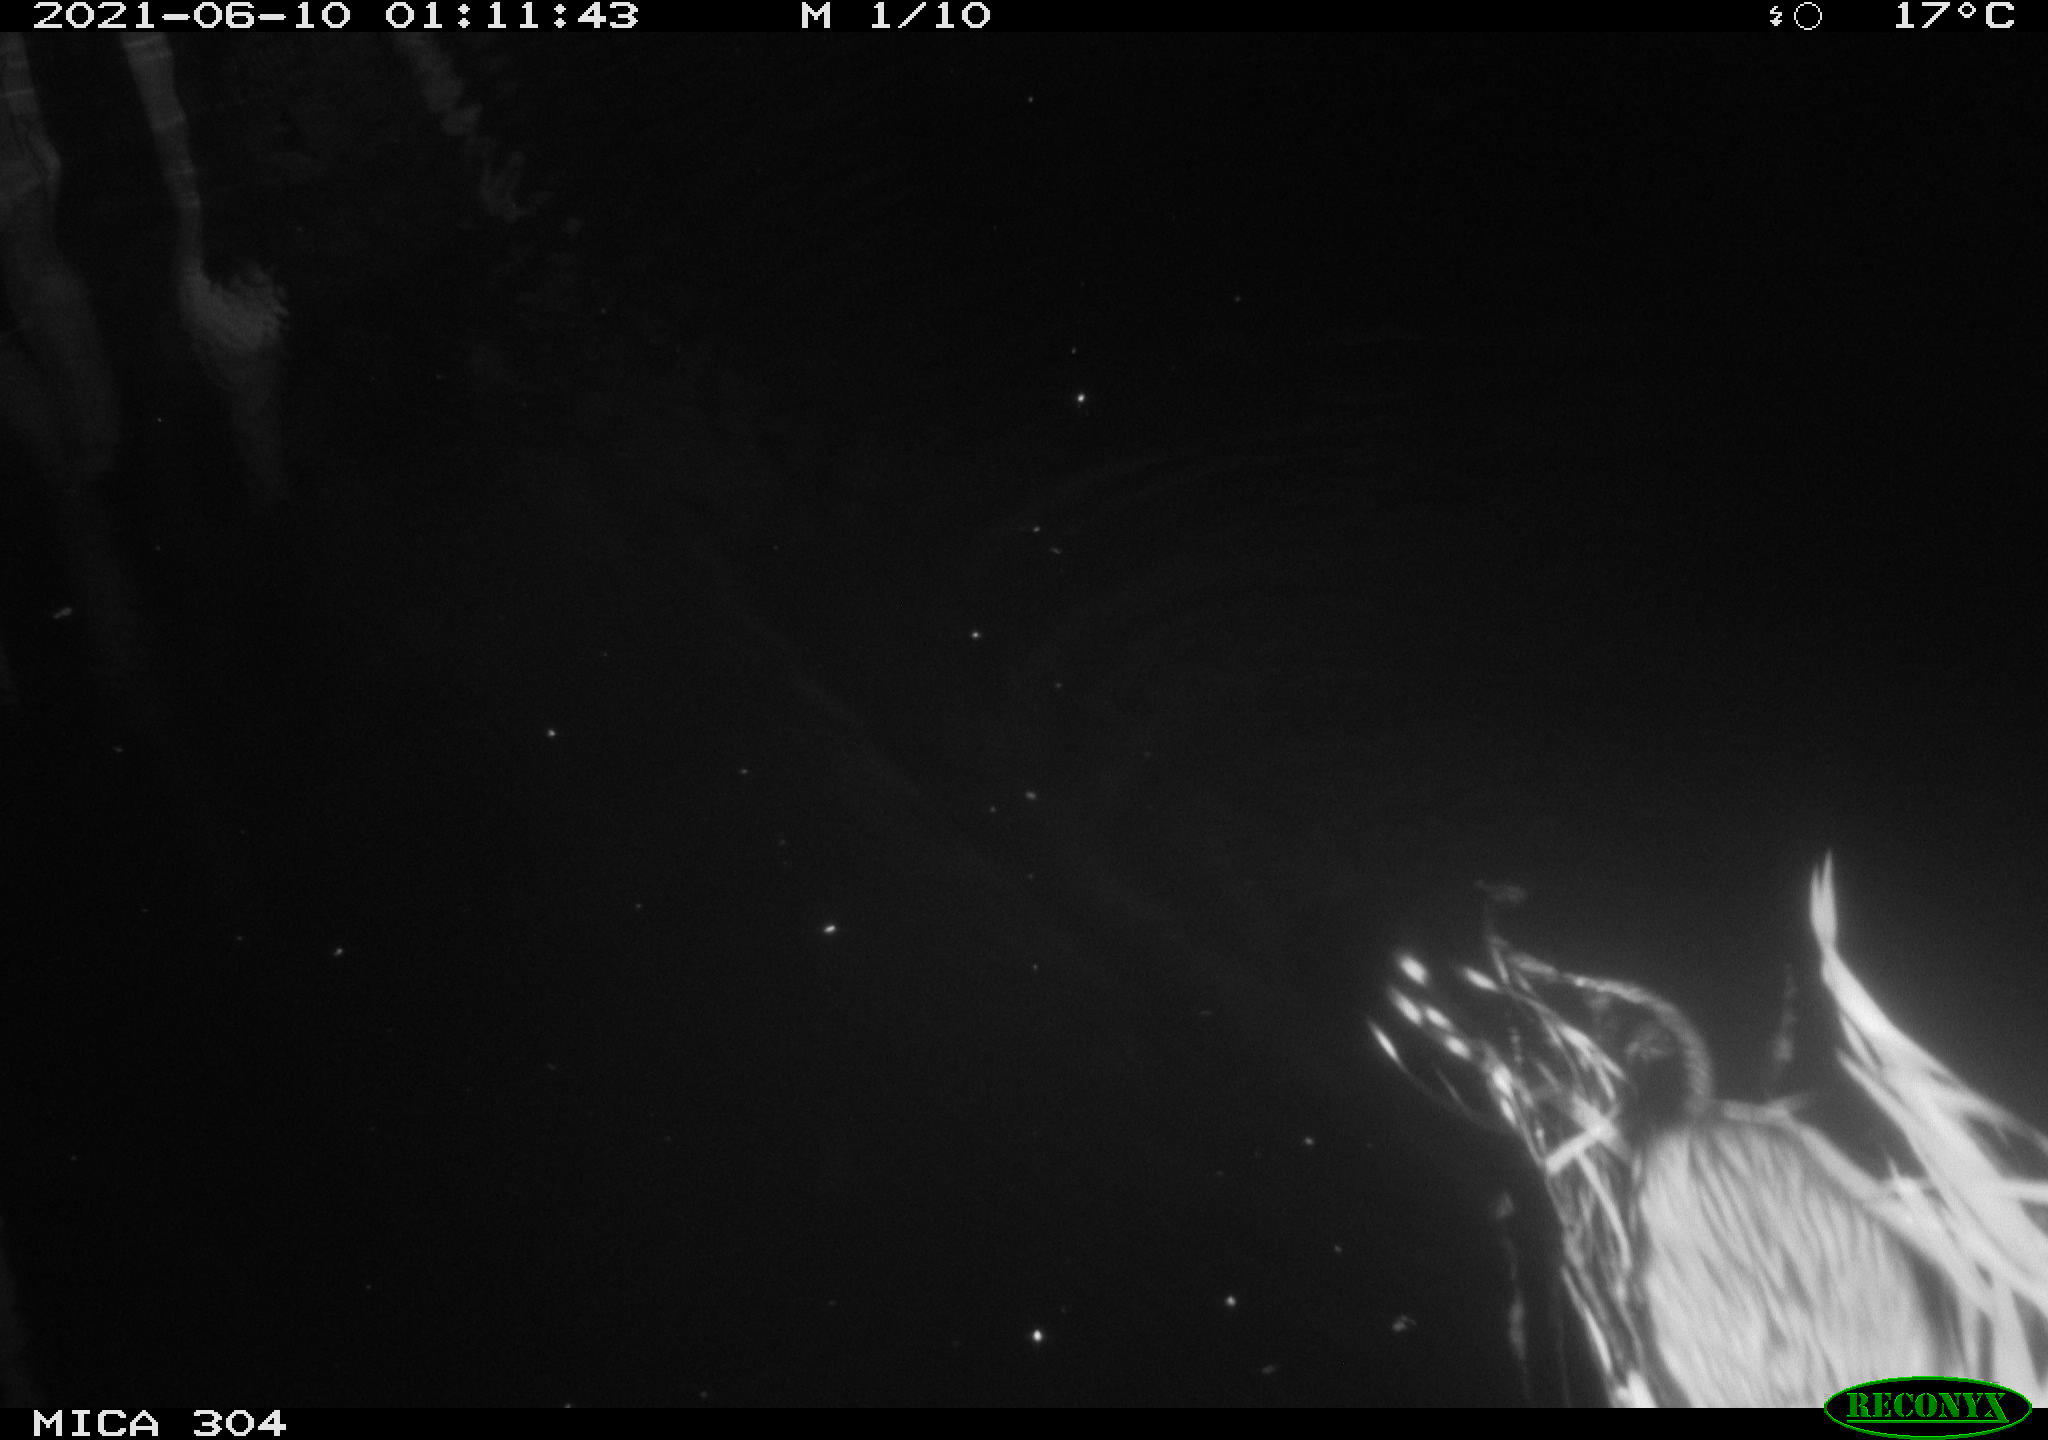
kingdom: Animalia
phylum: Chordata
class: Mammalia
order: Rodentia
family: Cricetidae
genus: Ondatra
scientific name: Ondatra zibethicus
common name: Muskrat
